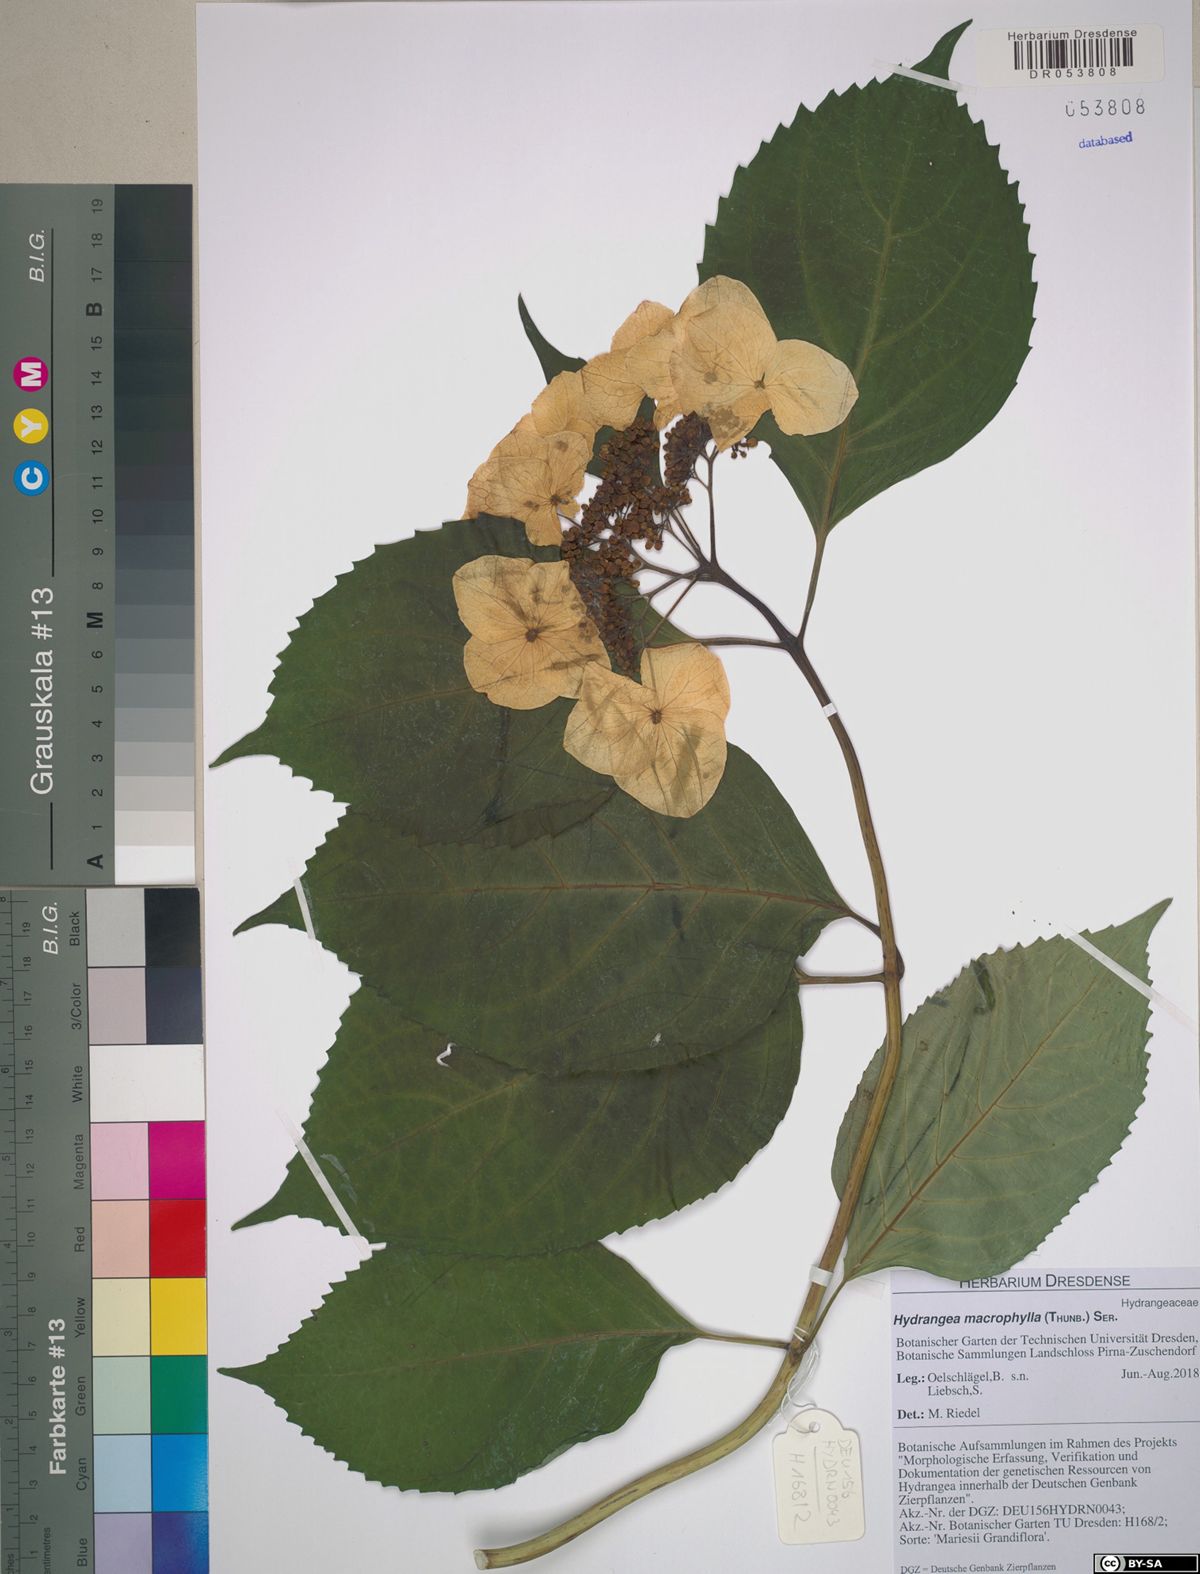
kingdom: Plantae
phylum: Tracheophyta
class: Magnoliopsida
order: Cornales
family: Hydrangeaceae
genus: Hydrangea
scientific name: Hydrangea macrophylla
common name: Hydrangea
